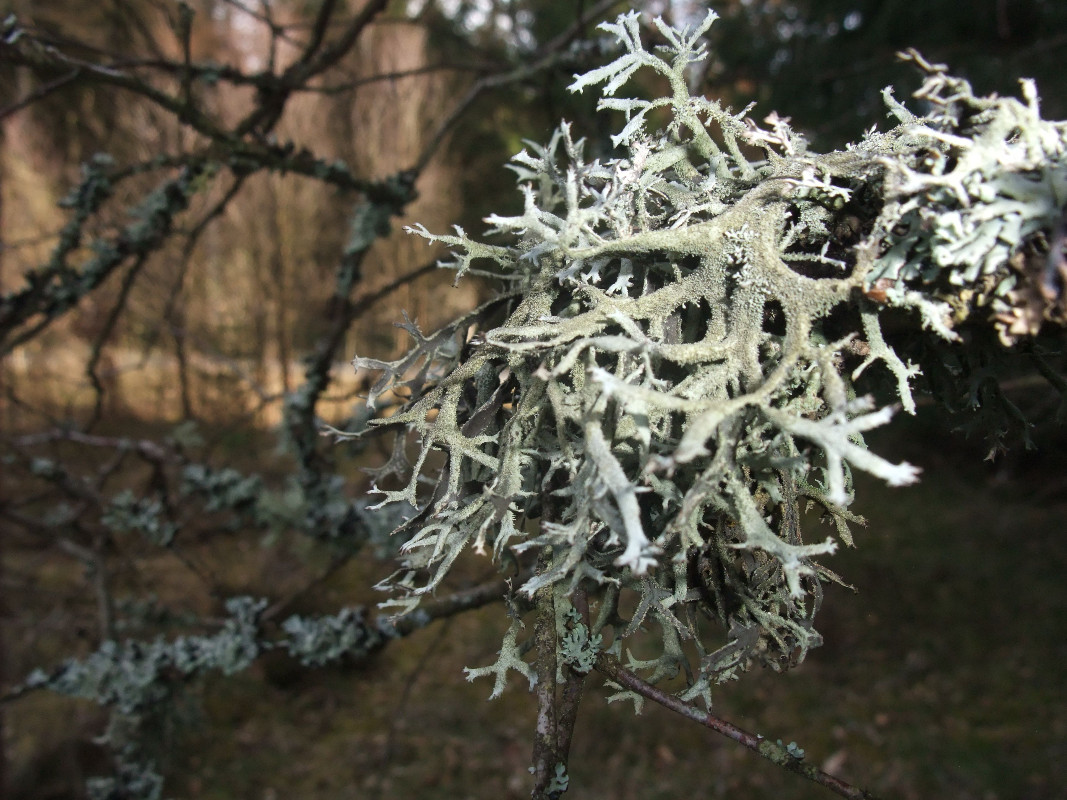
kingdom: Fungi
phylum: Ascomycota
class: Lecanoromycetes
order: Lecanorales
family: Parmeliaceae
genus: Pseudevernia
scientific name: Pseudevernia furfuracea
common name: grå fyrrelav
